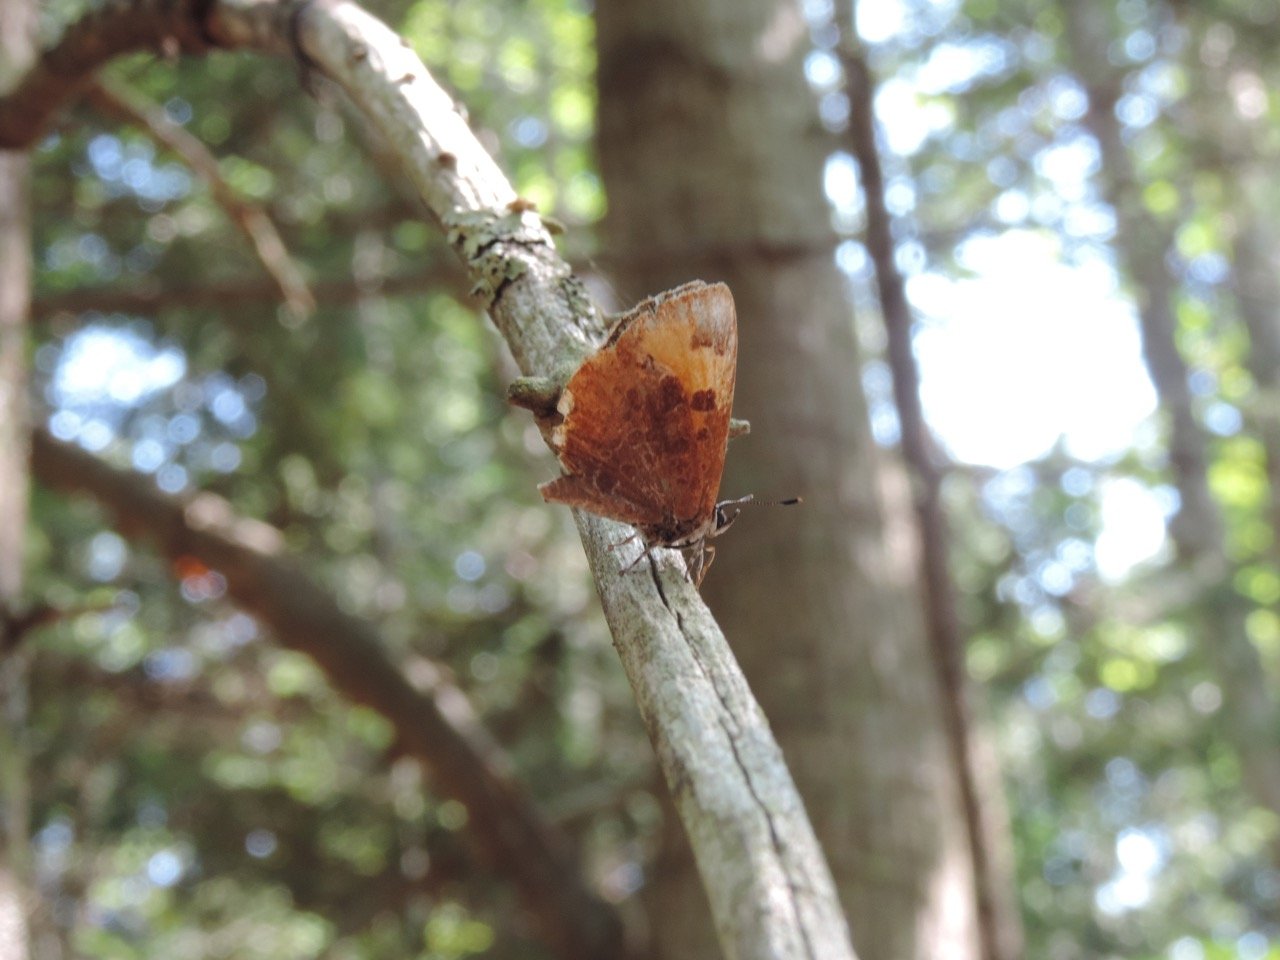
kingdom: Animalia
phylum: Arthropoda
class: Insecta
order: Lepidoptera
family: Lycaenidae
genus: Feniseca
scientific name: Feniseca tarquinius
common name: Harvester
